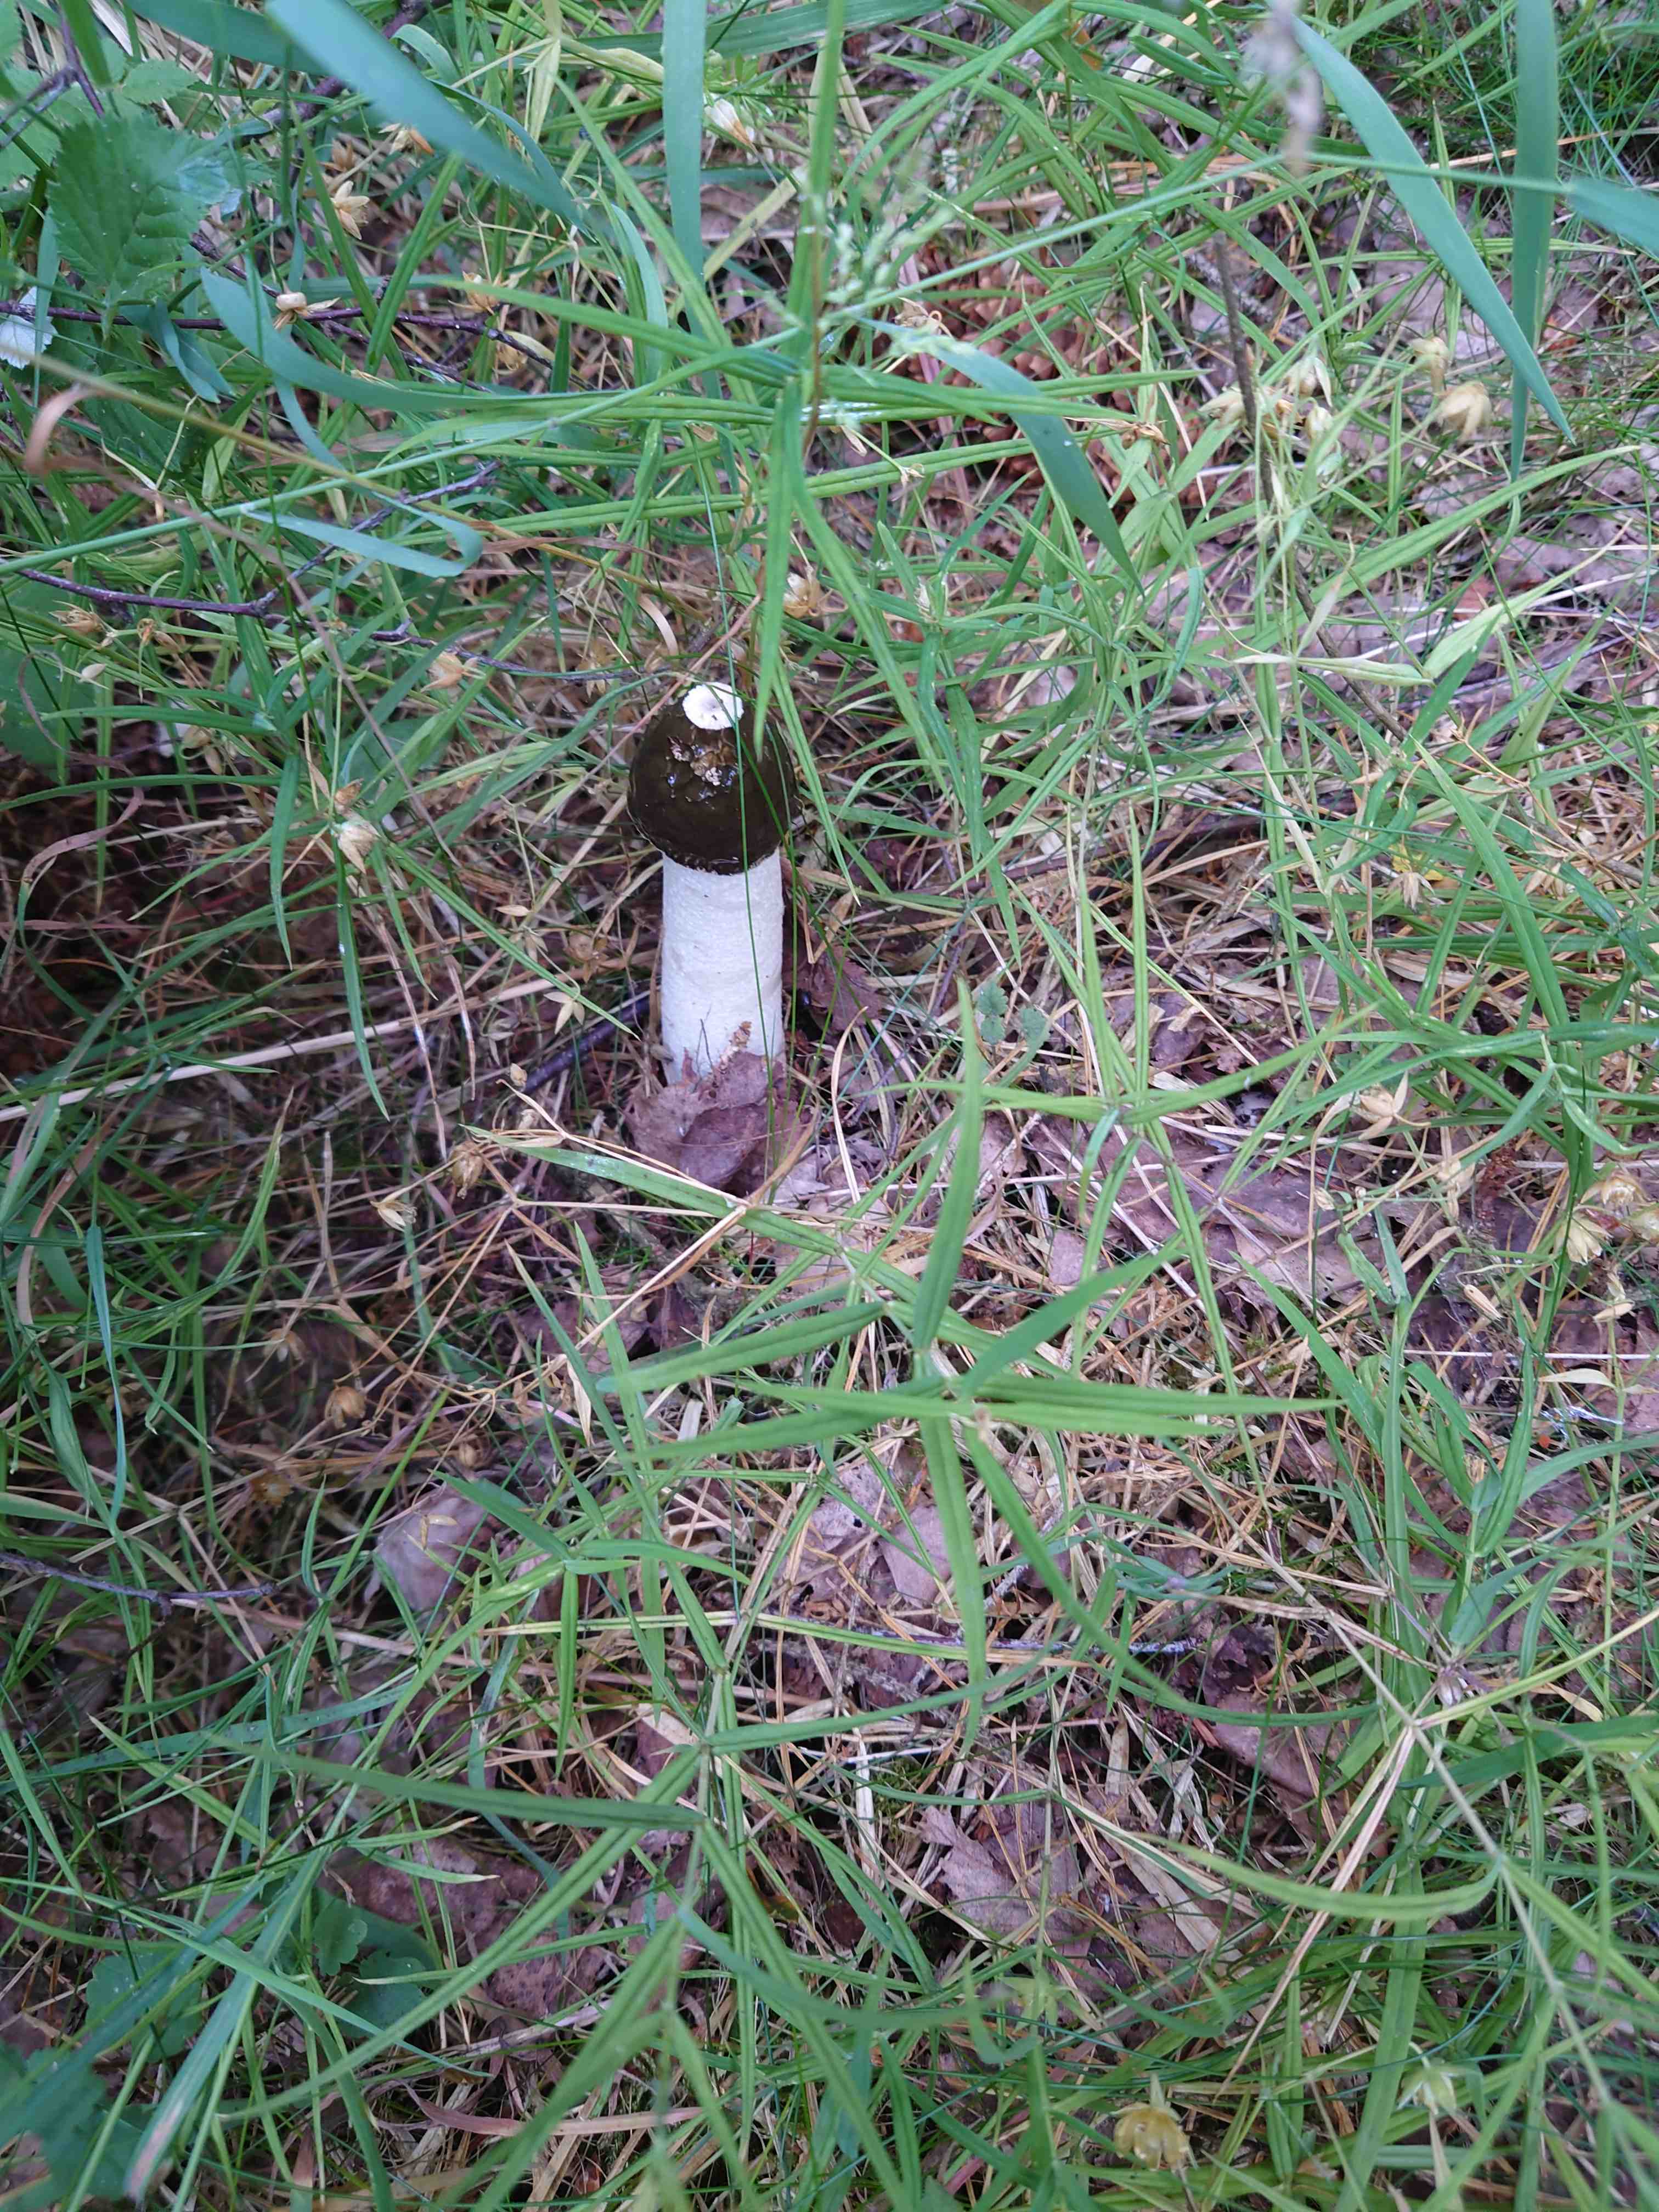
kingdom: Fungi
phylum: Basidiomycota
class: Agaricomycetes
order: Phallales
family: Phallaceae
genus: Phallus
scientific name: Phallus impudicus
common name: almindelig stinksvamp
